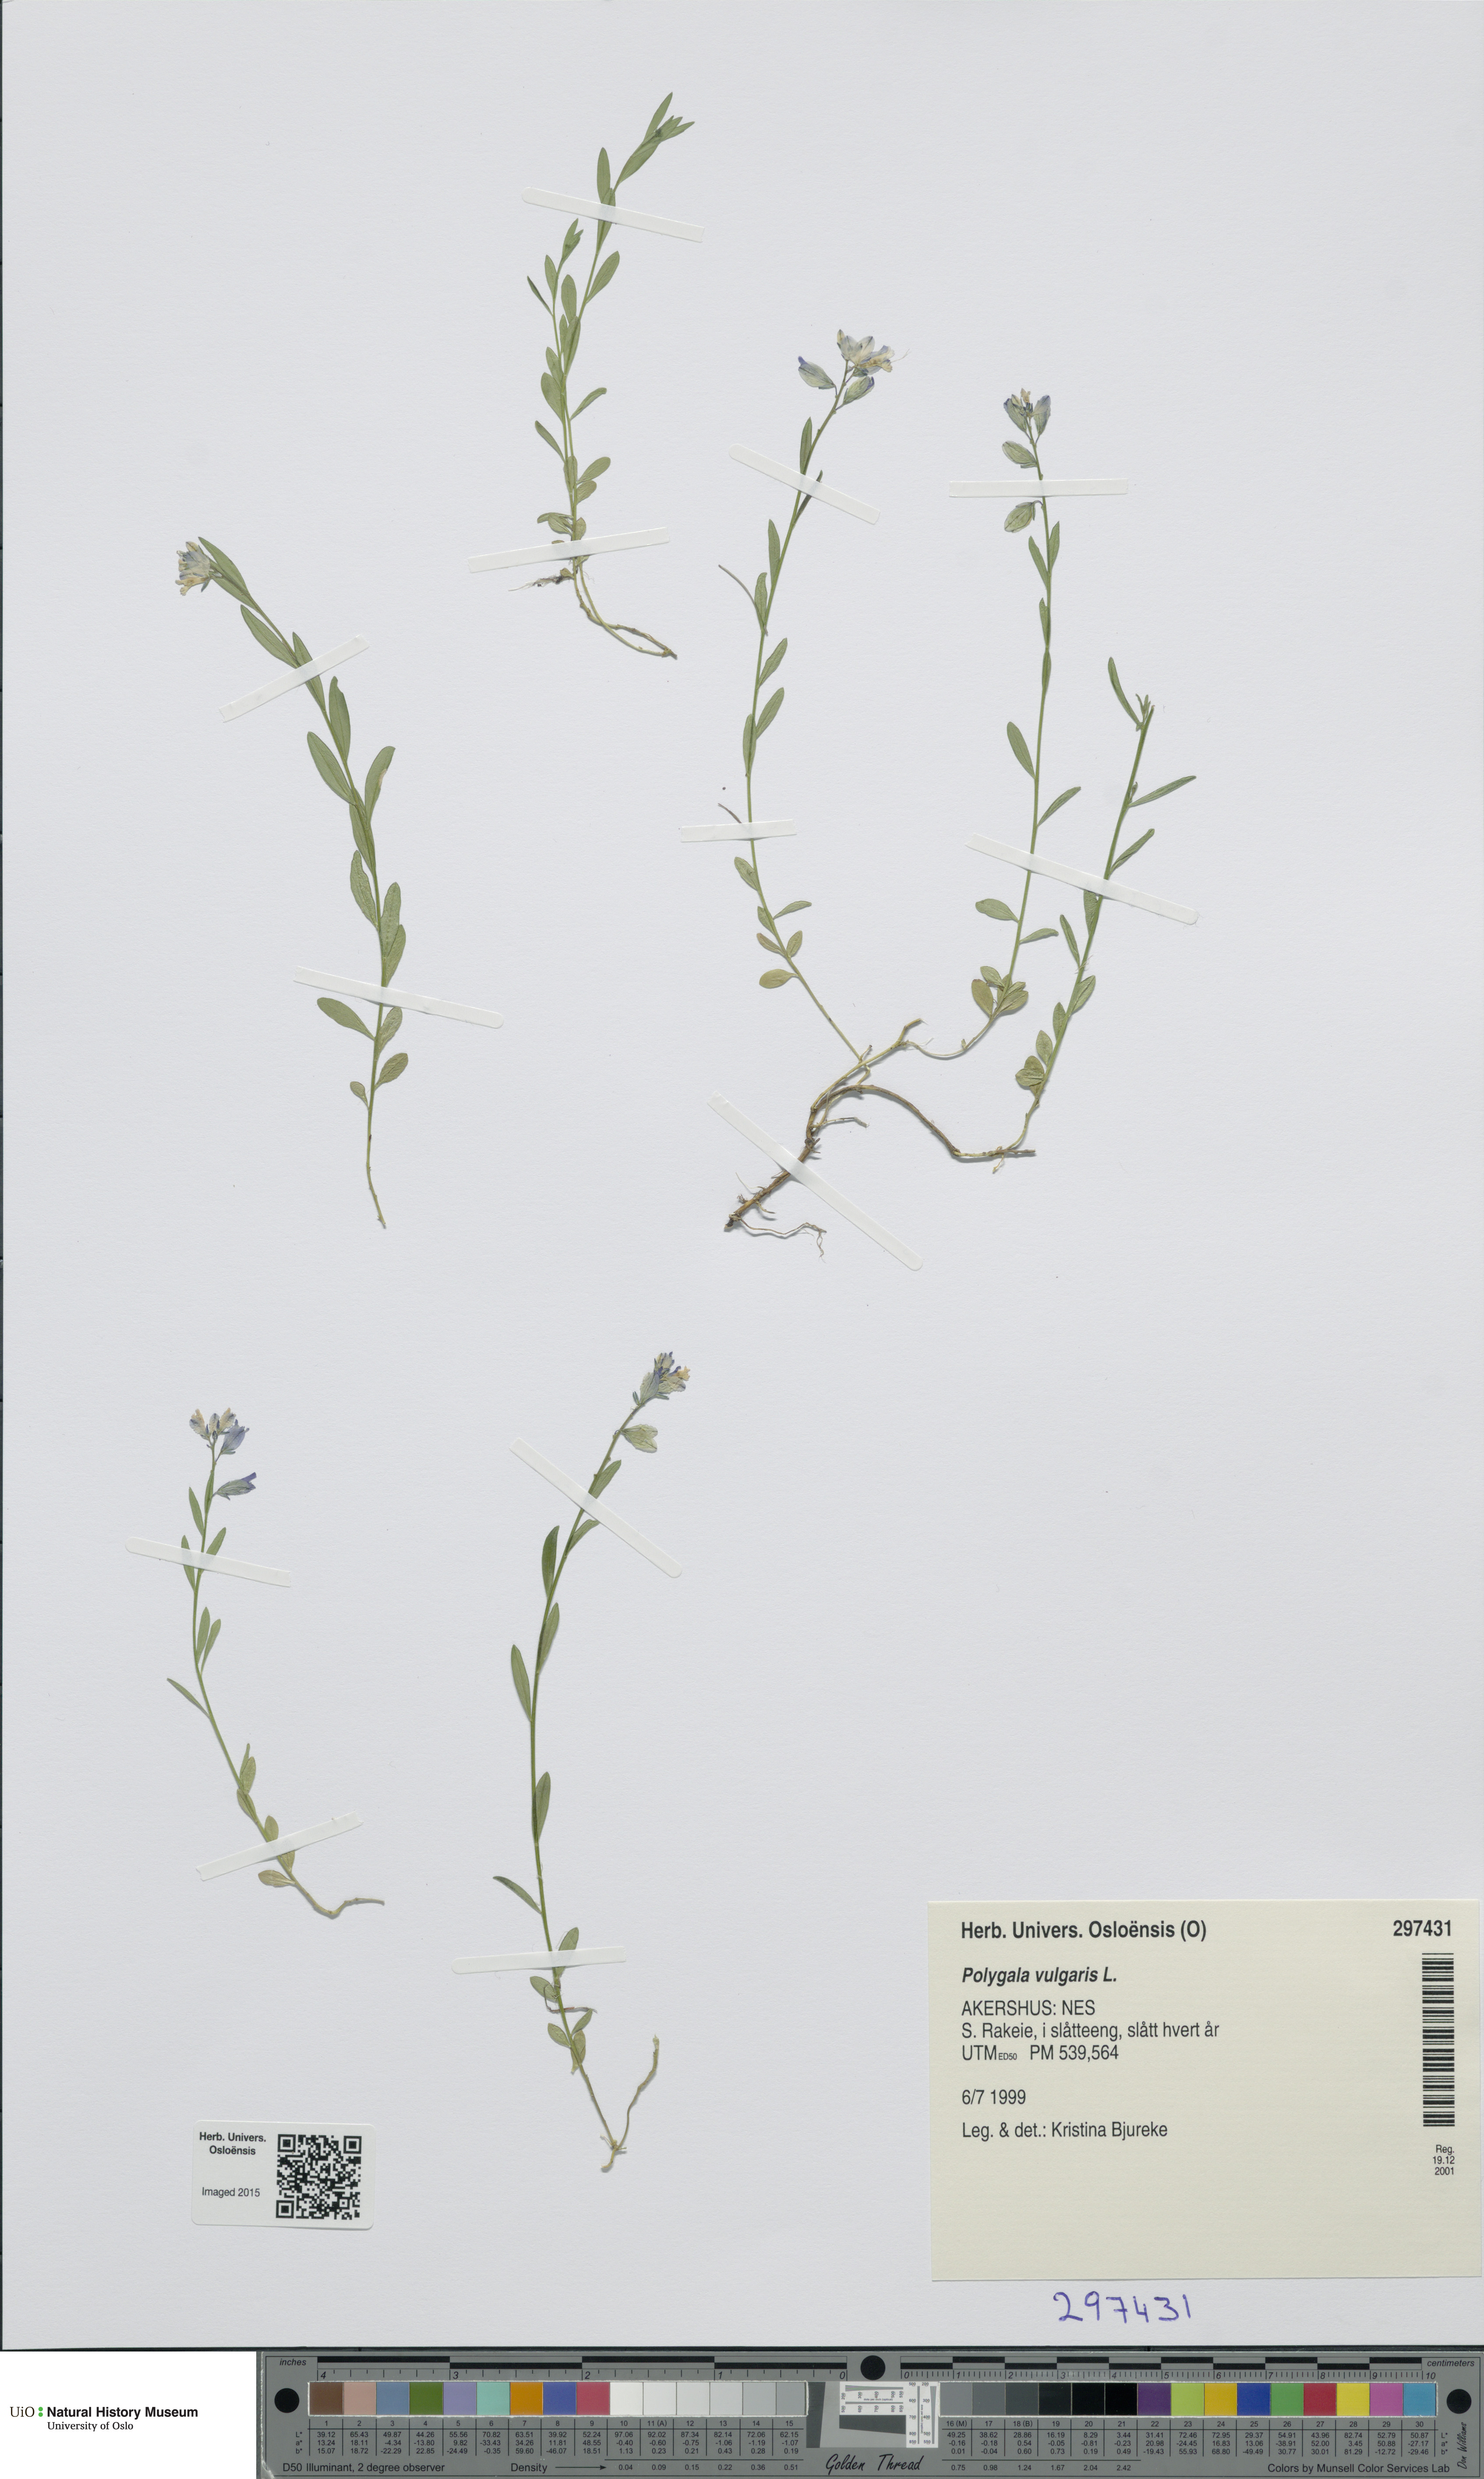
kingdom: Plantae
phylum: Tracheophyta
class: Magnoliopsida
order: Fabales
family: Polygalaceae
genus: Polygala
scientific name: Polygala vulgaris
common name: Common milkwort
